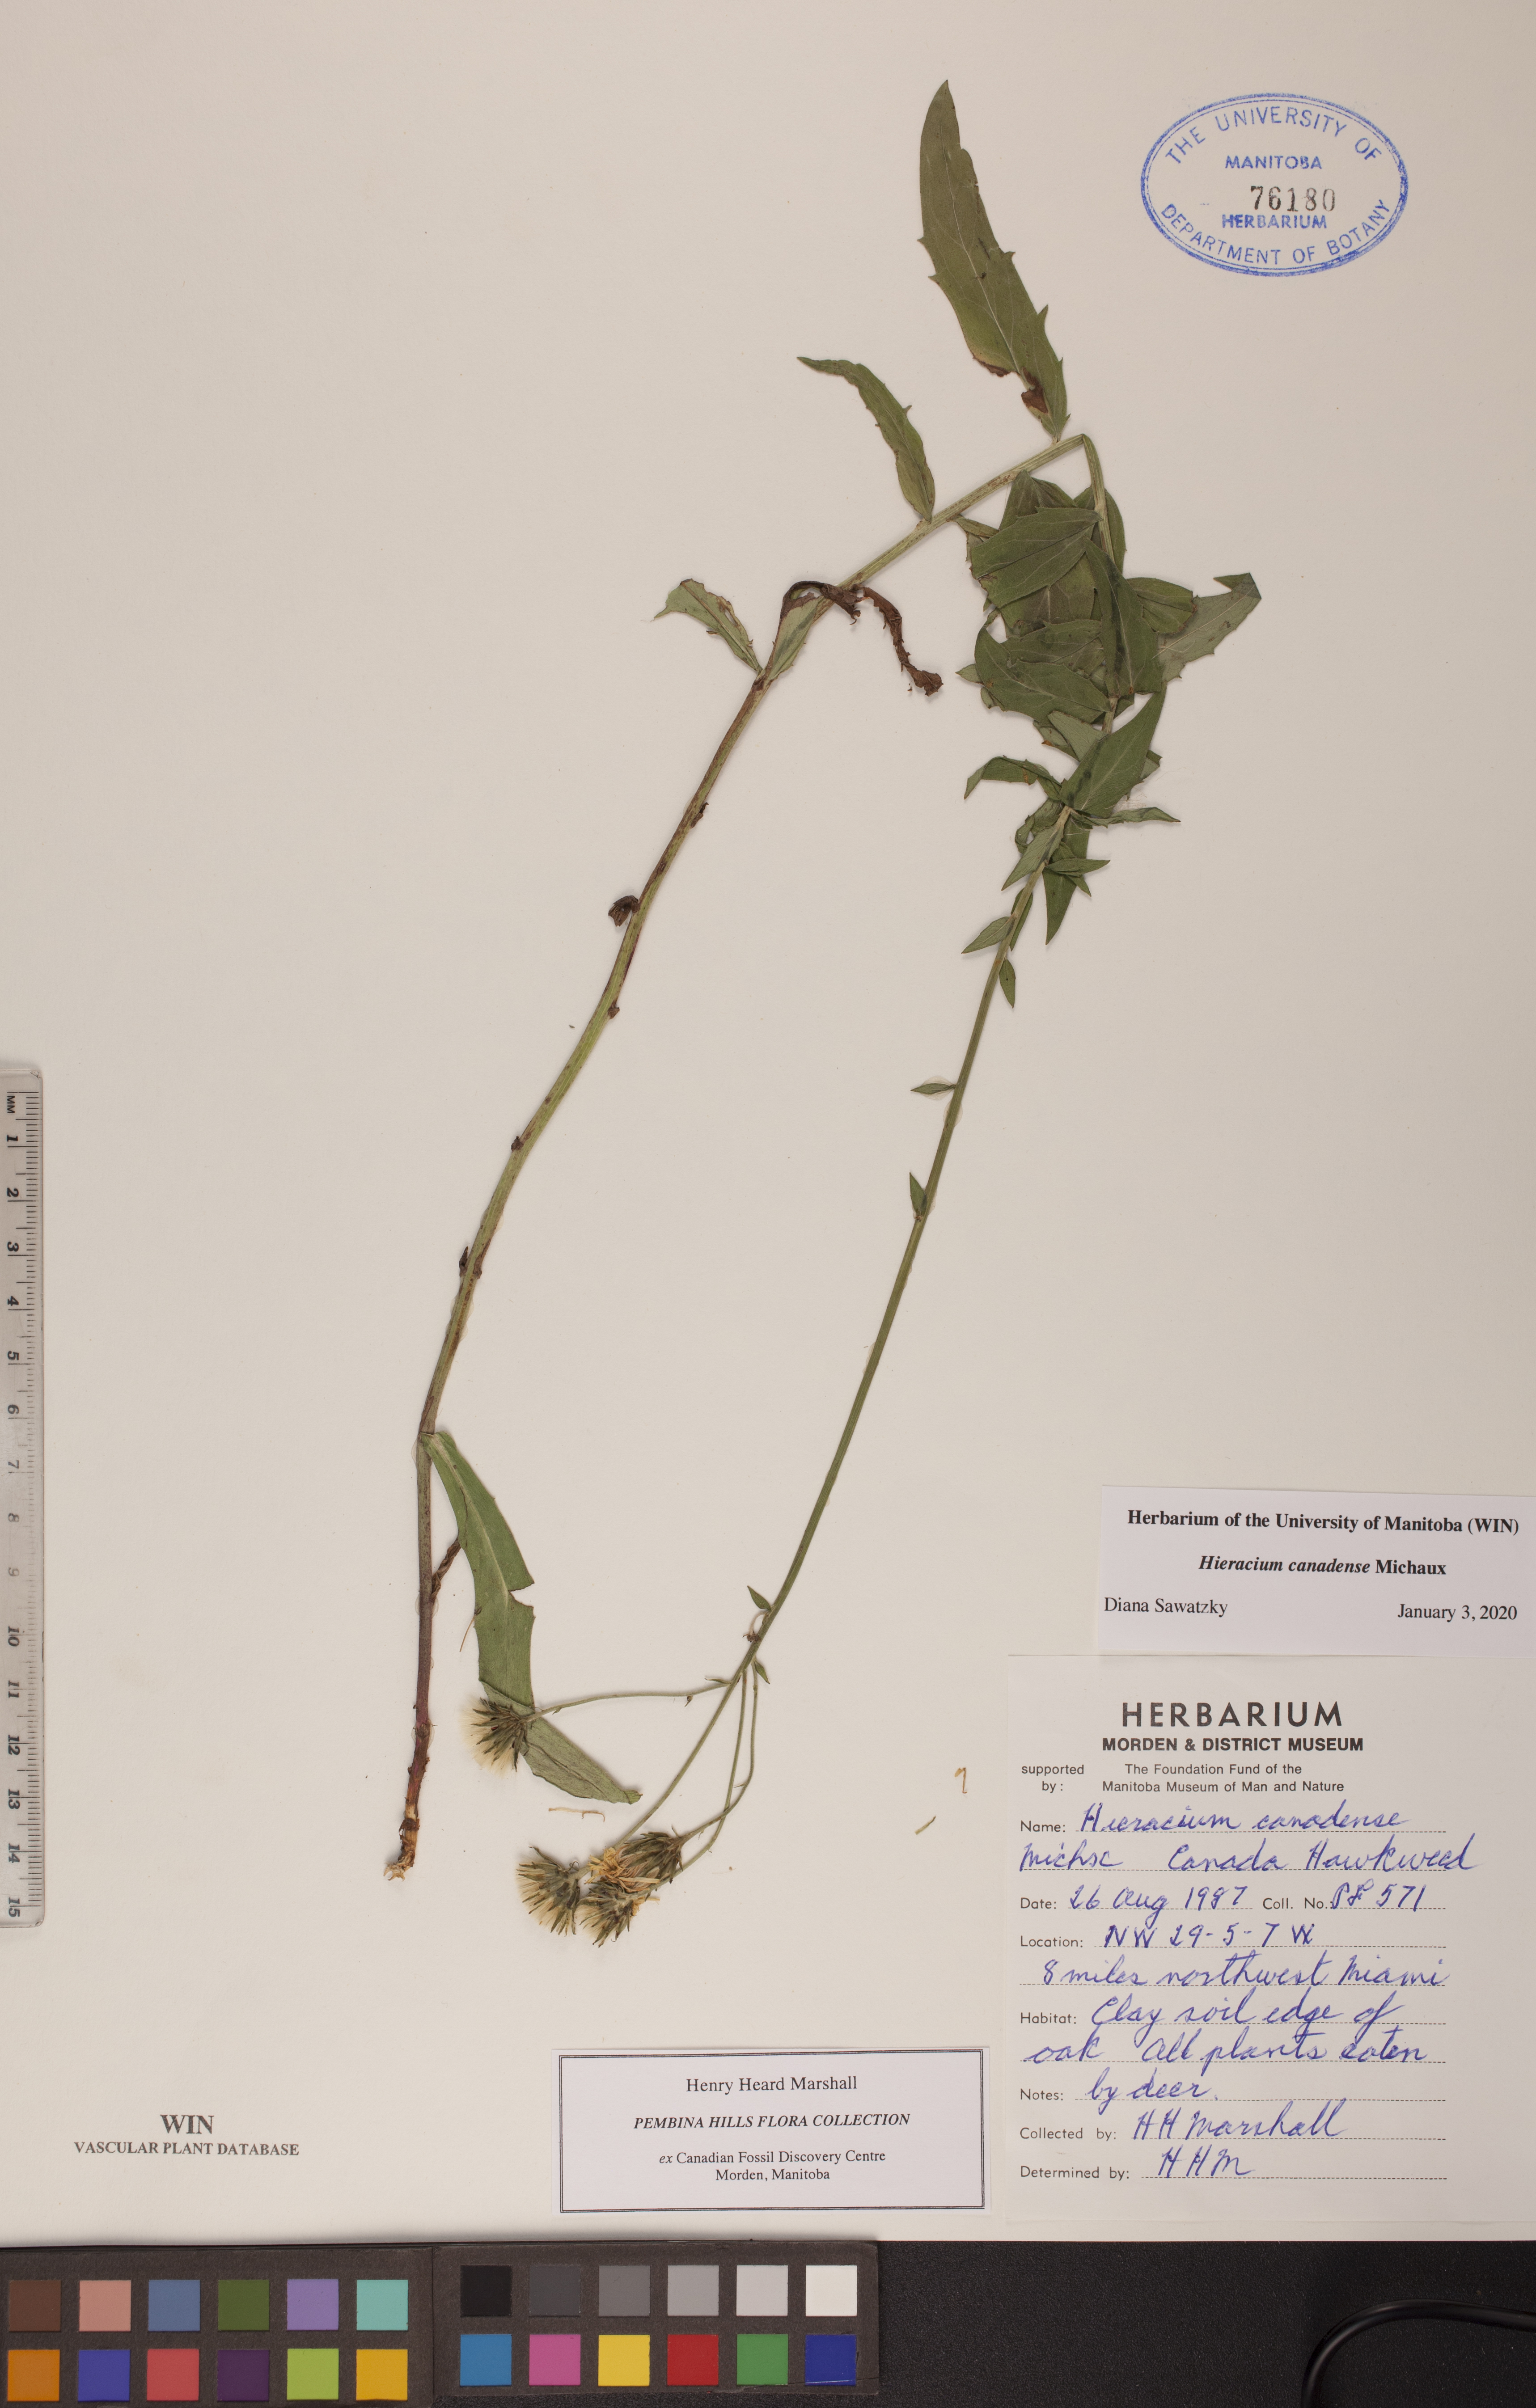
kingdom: Plantae
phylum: Tracheophyta
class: Magnoliopsida
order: Asterales
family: Asteraceae
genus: Hieracium
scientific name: Hieracium umbellatum
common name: Northern hawkweed
